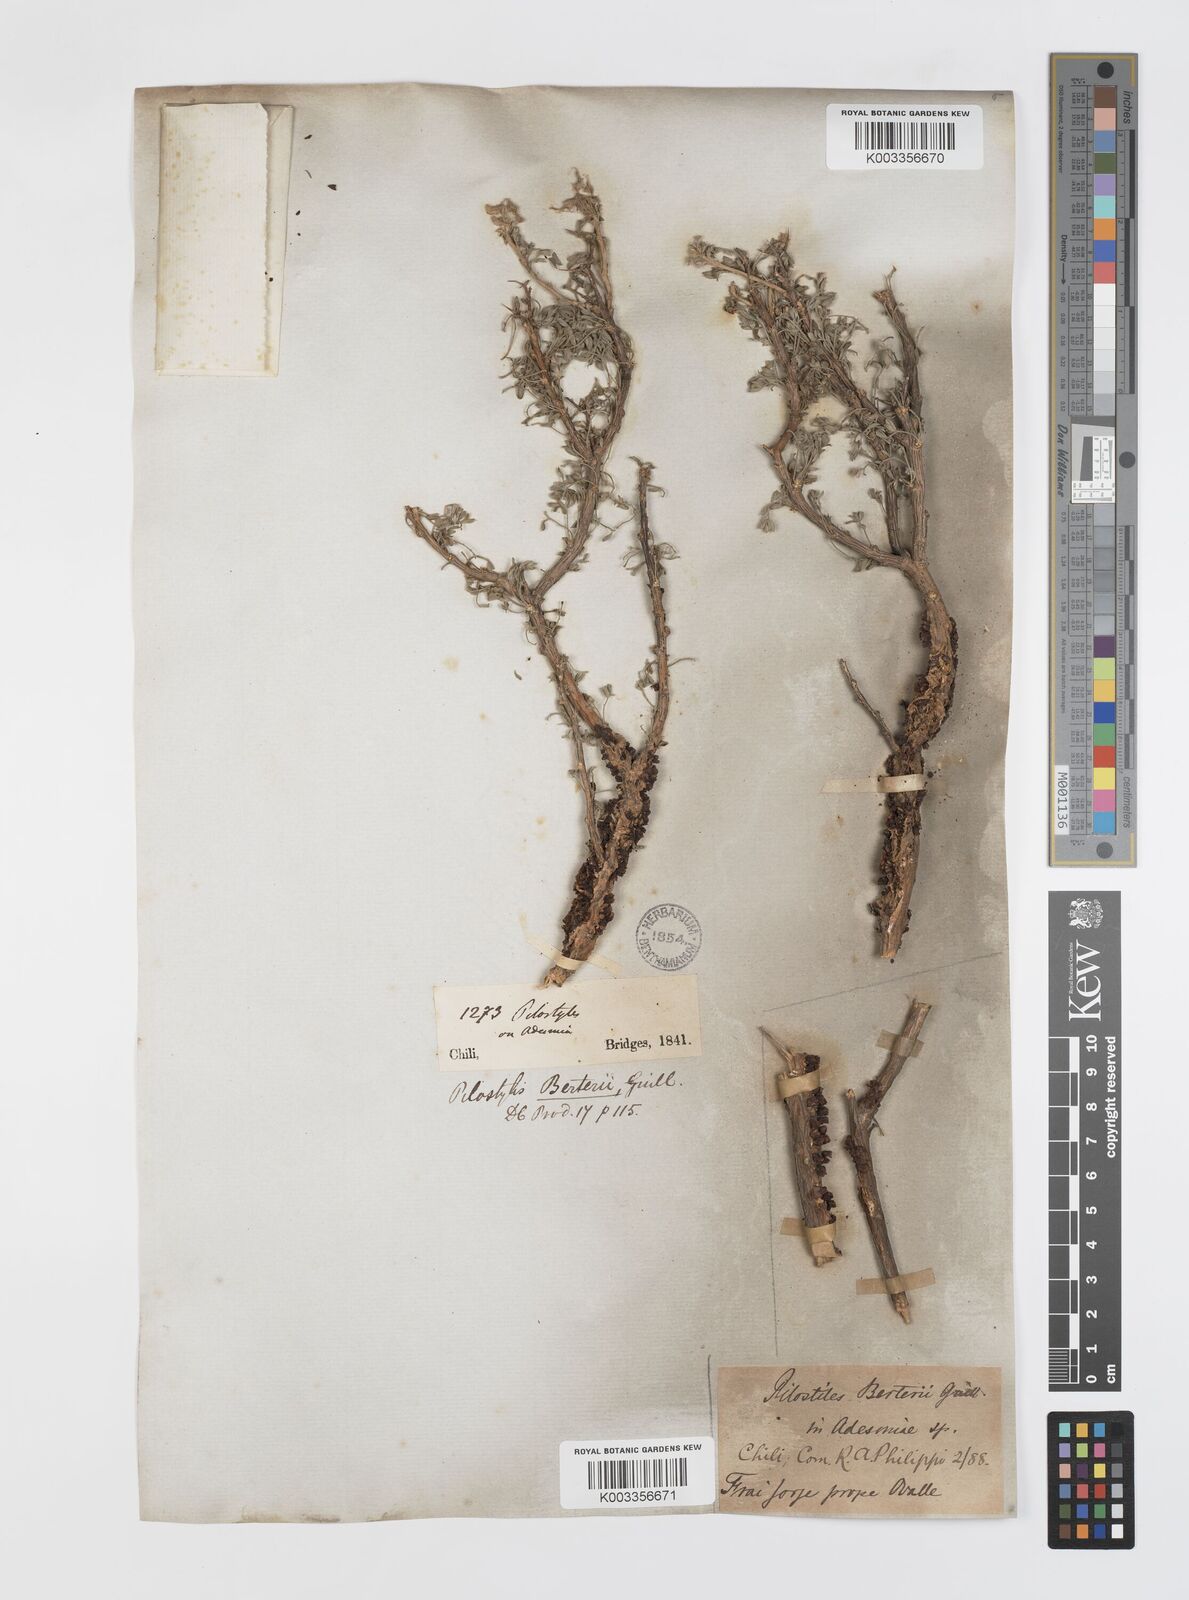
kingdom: Plantae
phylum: Tracheophyta
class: Magnoliopsida
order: Cucurbitales
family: Apodanthaceae
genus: Pilostyles
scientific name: Pilostyles berteroi
